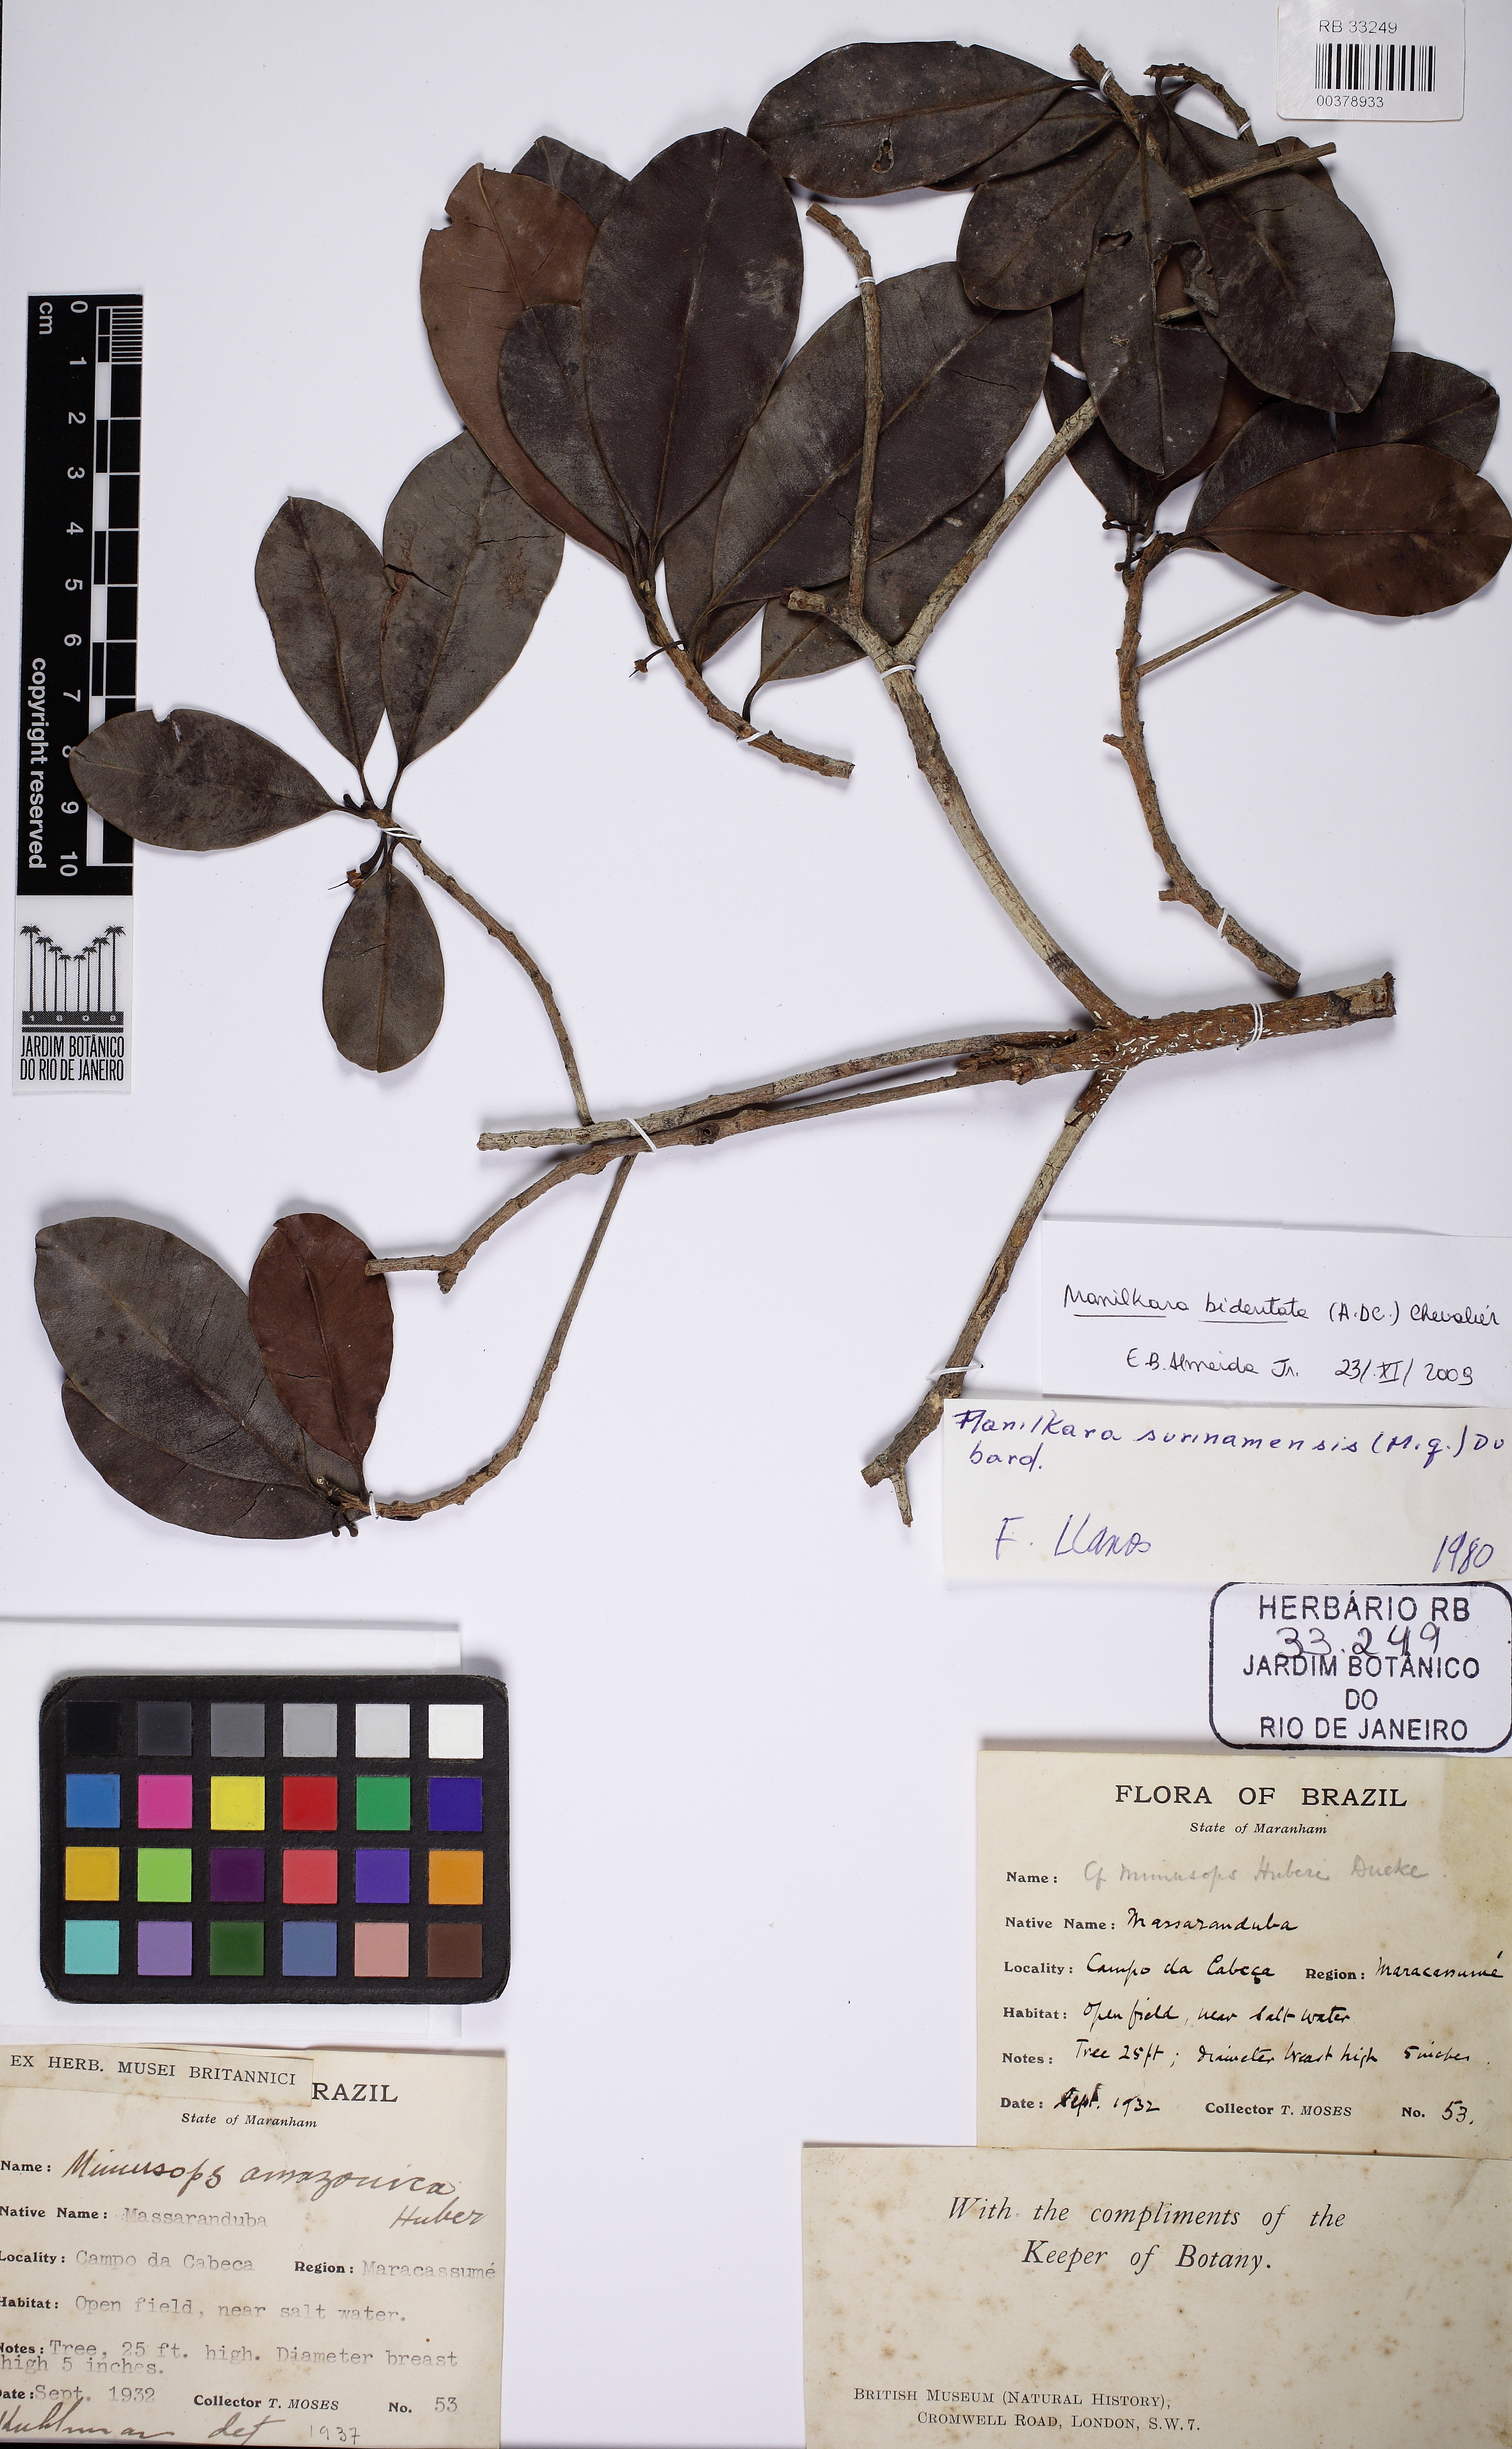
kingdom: Plantae
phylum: Tracheophyta
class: Magnoliopsida
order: Ericales
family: Sapotaceae
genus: Manilkara
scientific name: Manilkara bidentata
